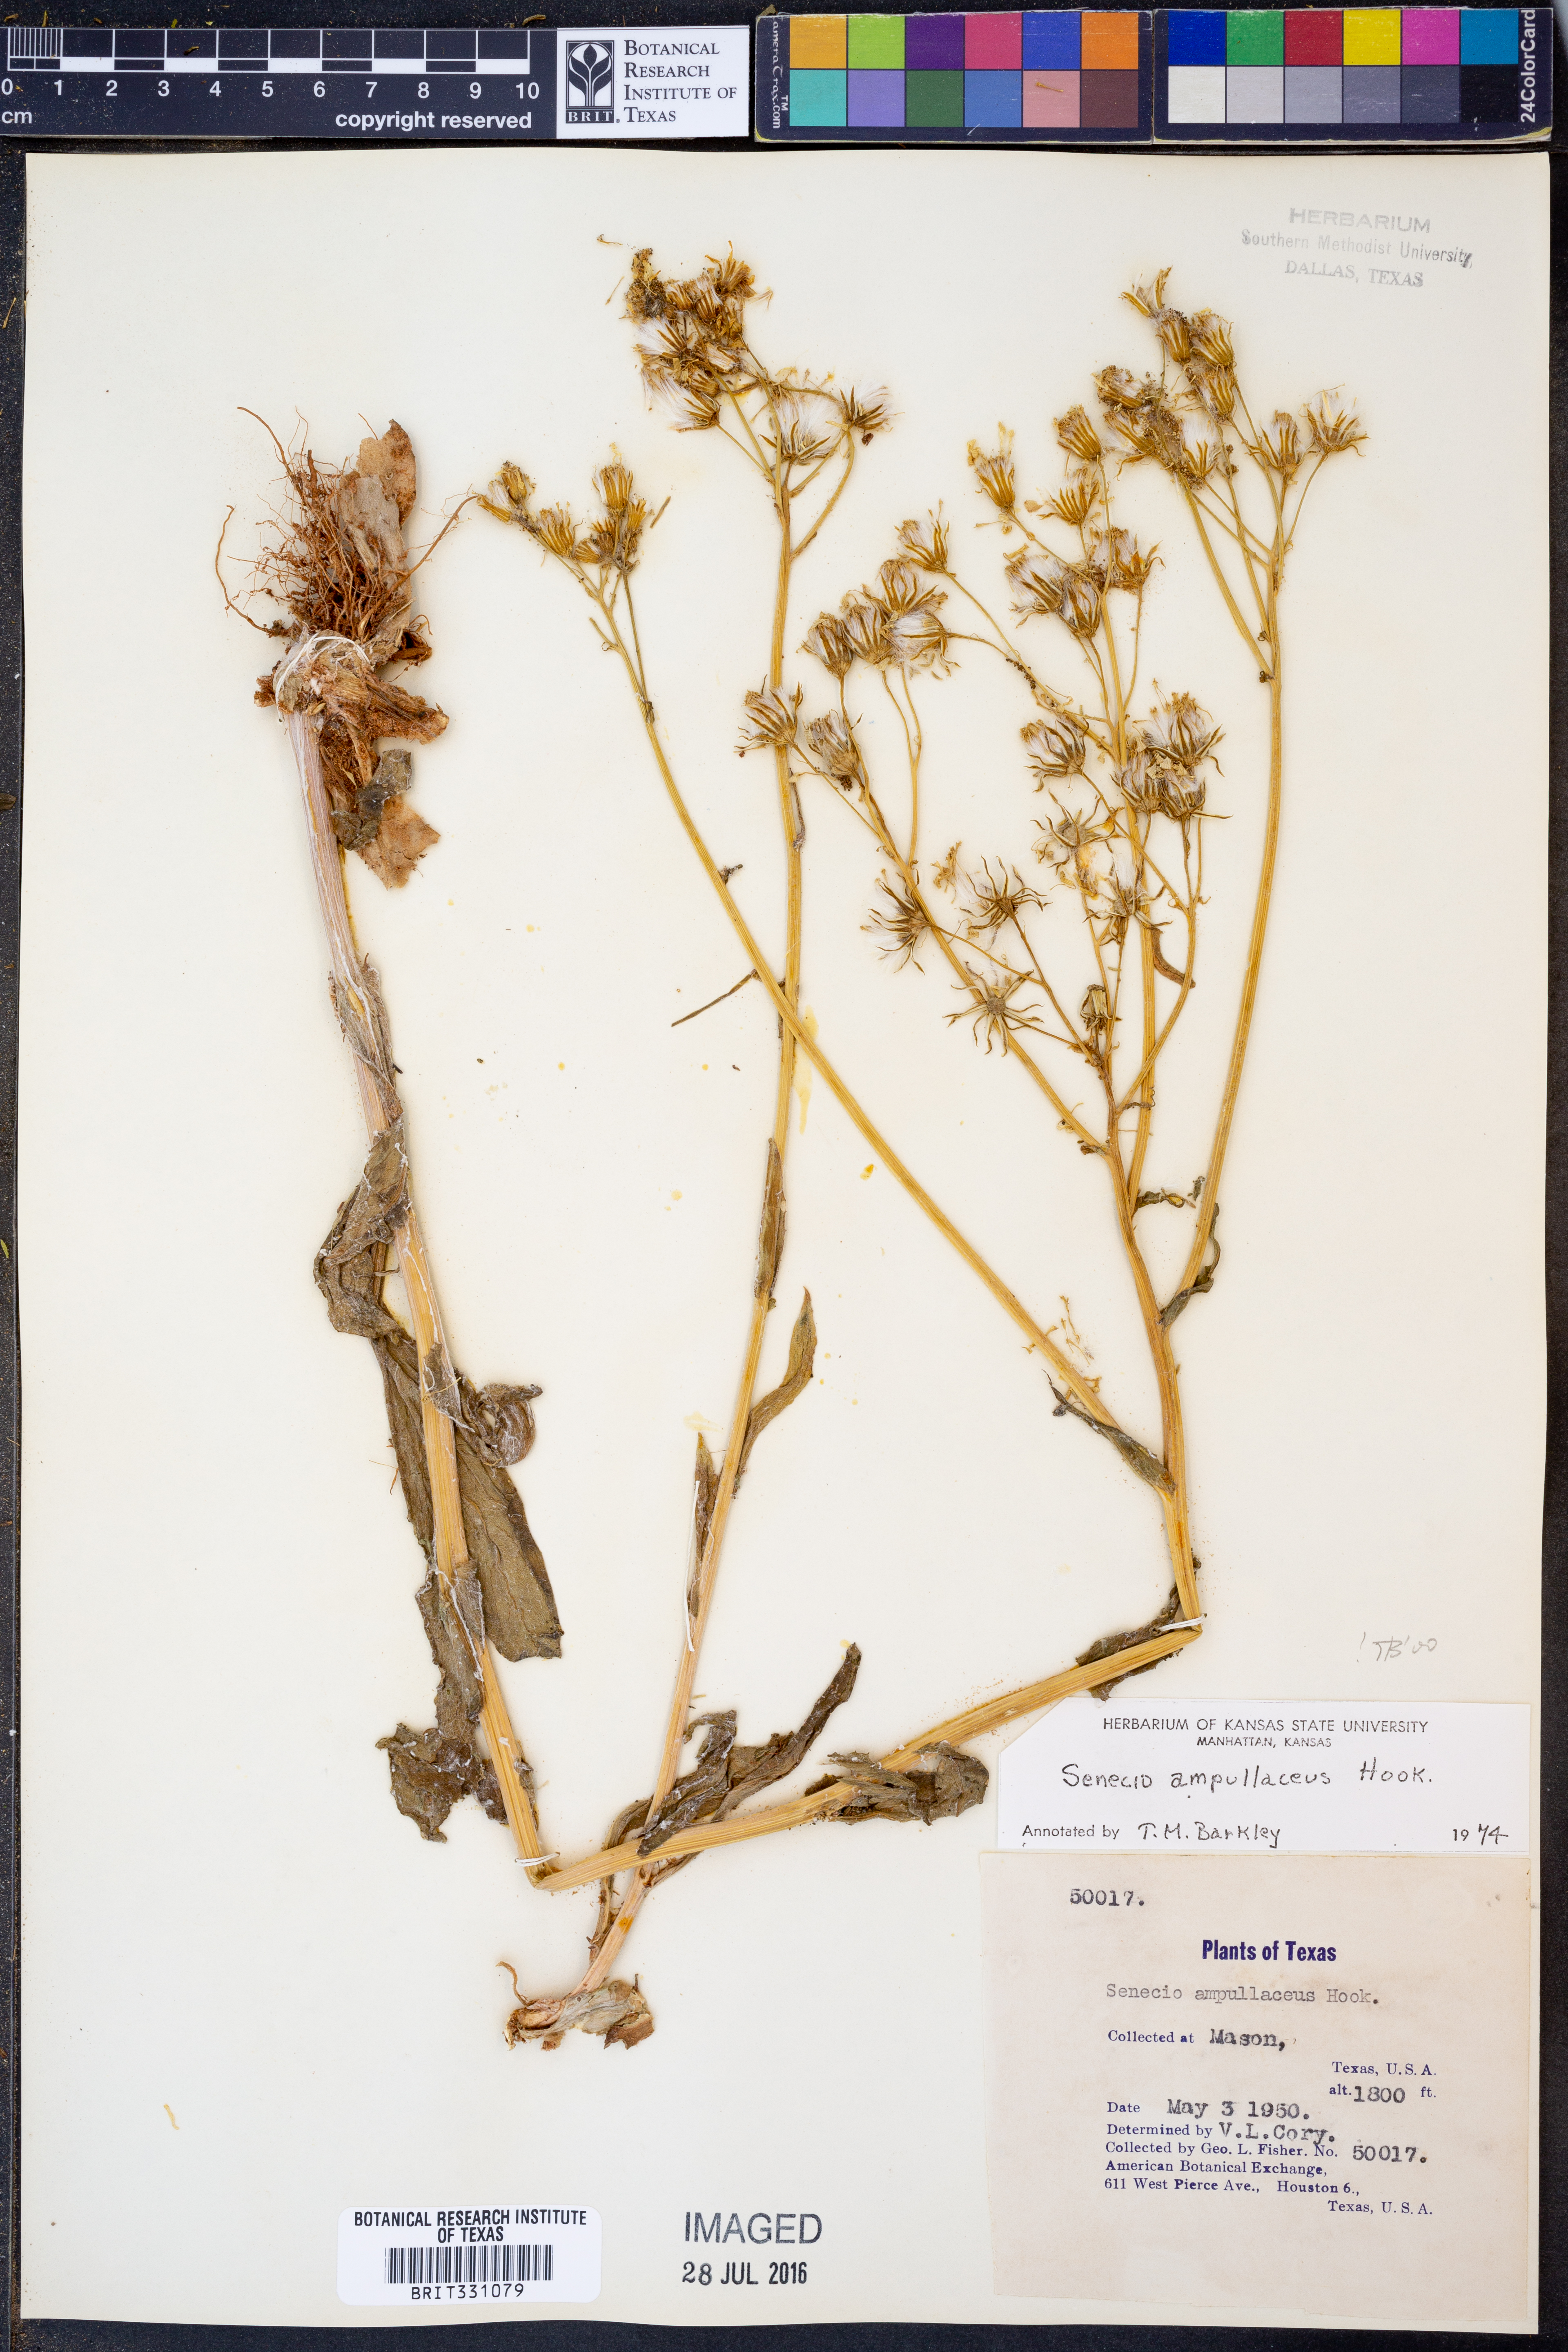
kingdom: Plantae
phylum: Tracheophyta
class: Magnoliopsida
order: Asterales
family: Asteraceae
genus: Senecio
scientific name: Senecio ampullaceus
